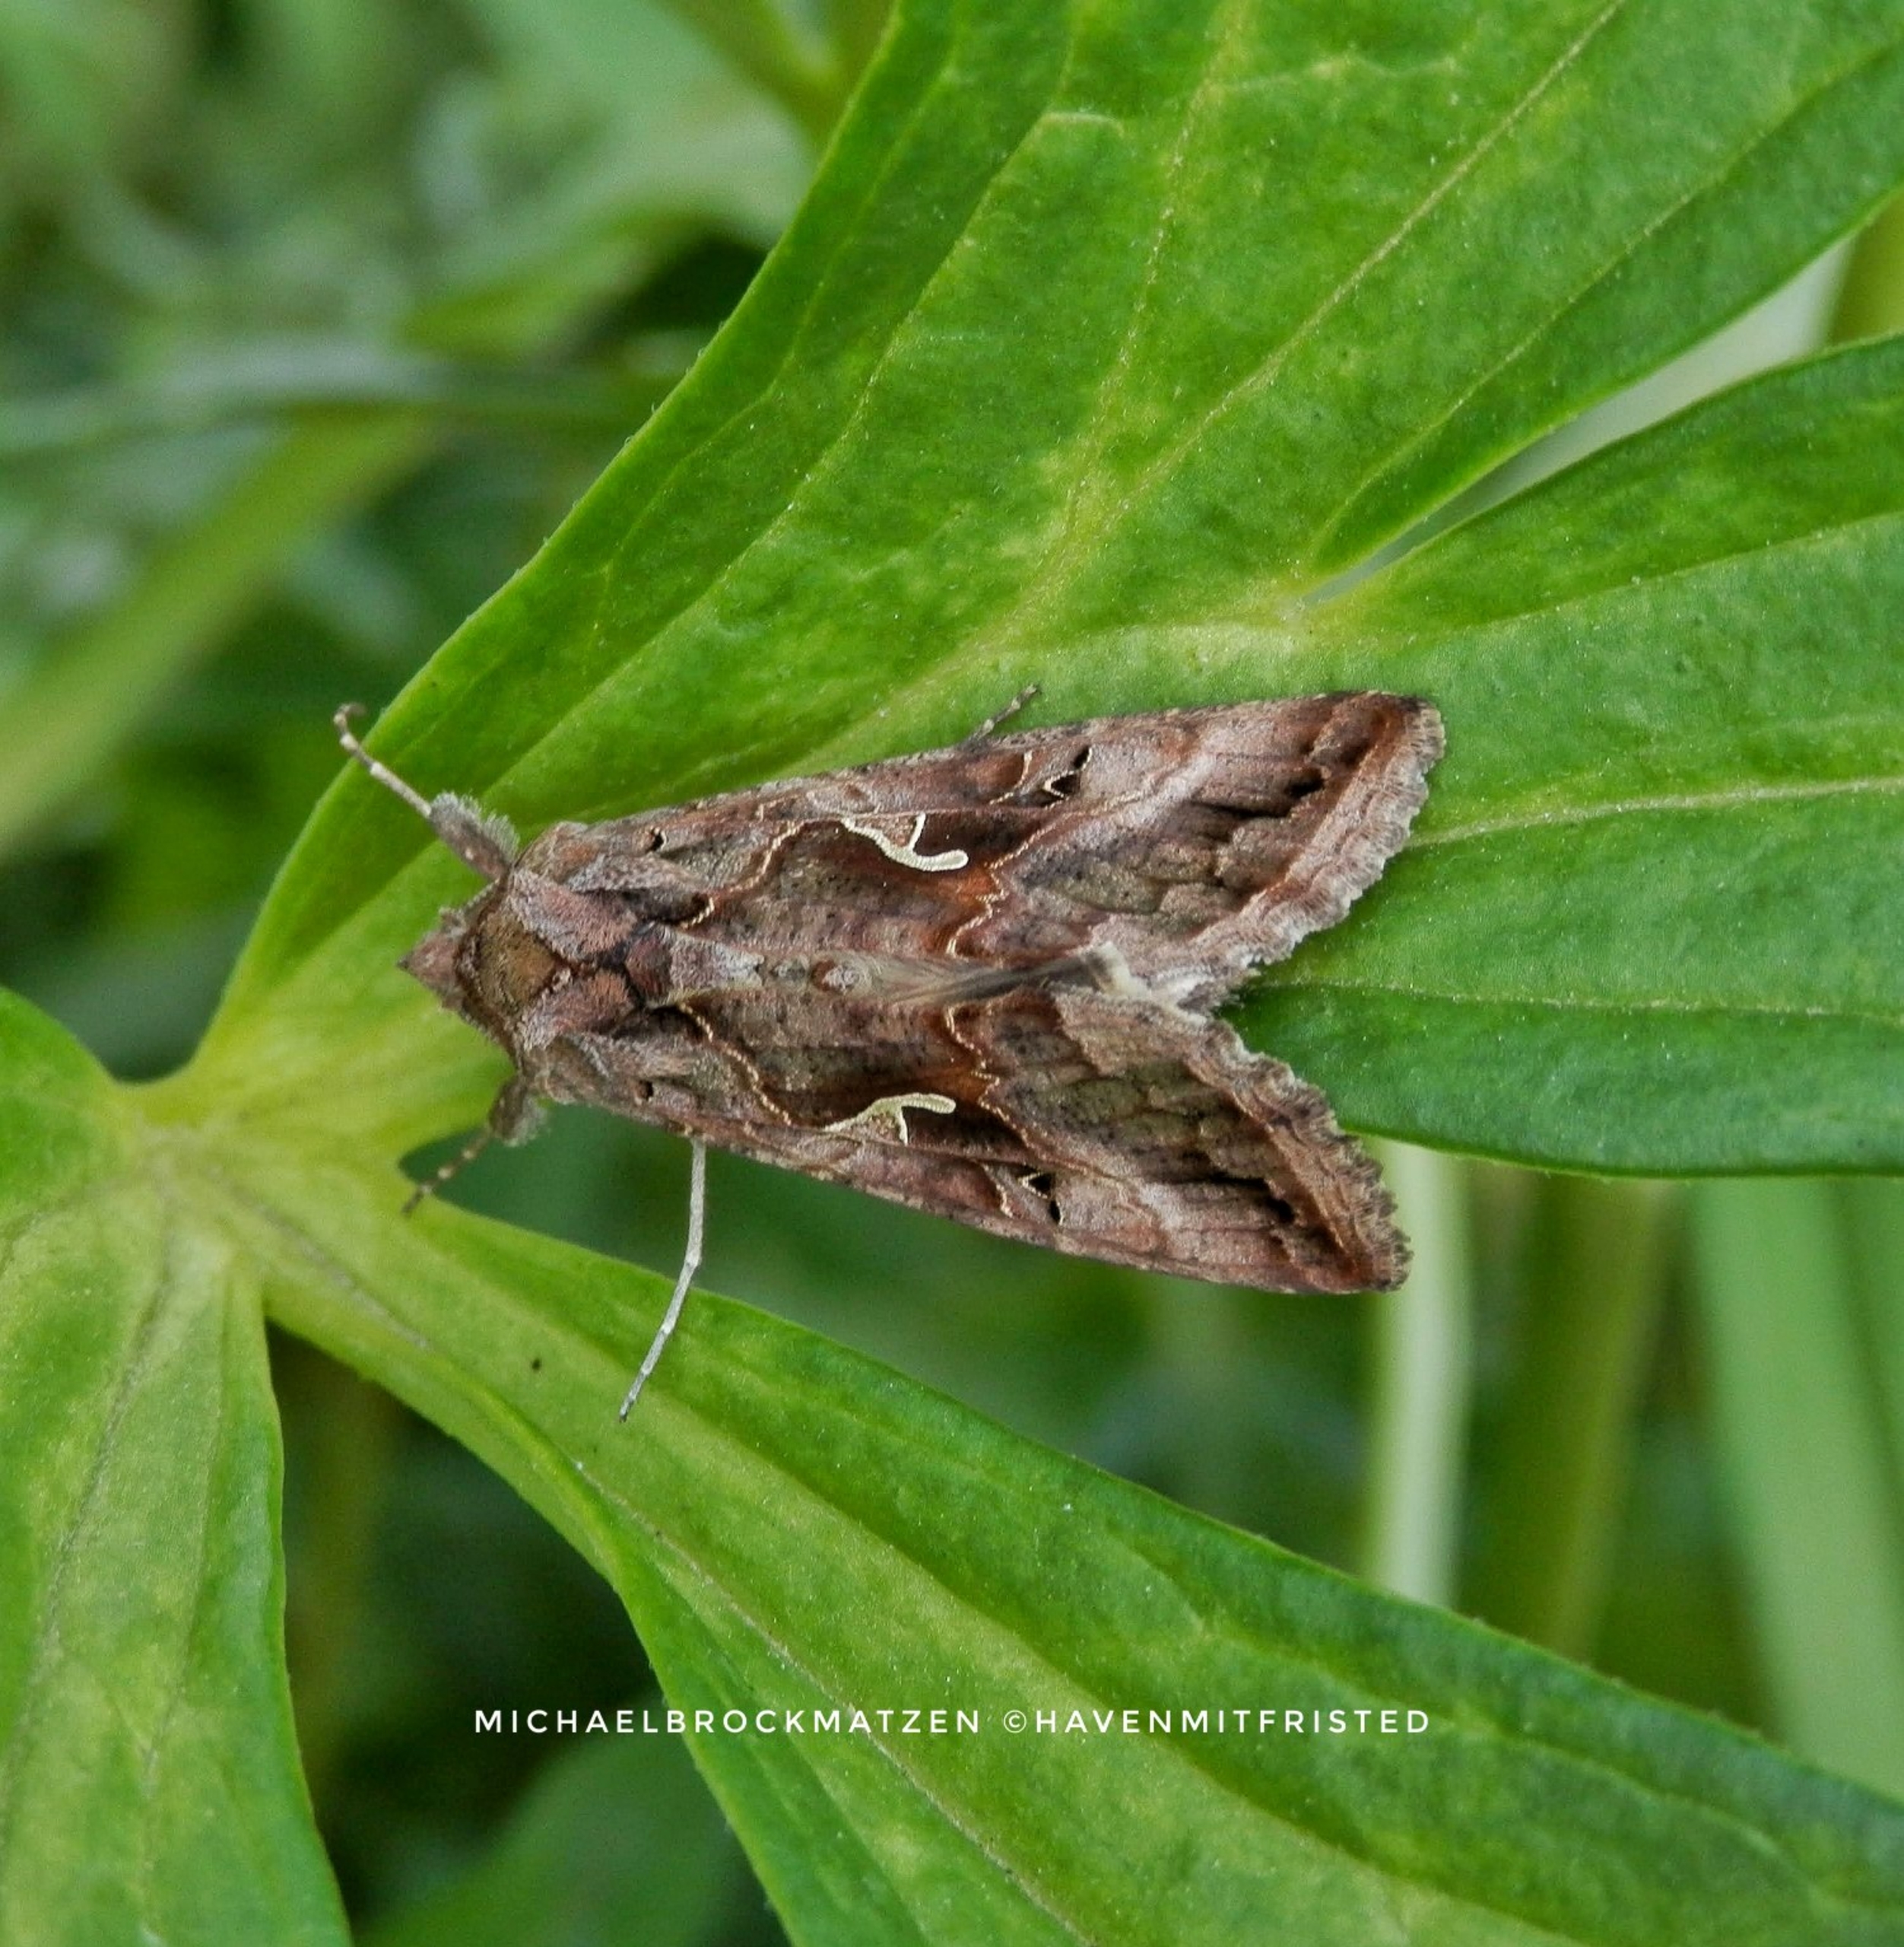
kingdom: Animalia
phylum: Arthropoda
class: Insecta
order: Lepidoptera
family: Noctuidae
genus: Autographa
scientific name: Autographa gamma
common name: Gammaugle
